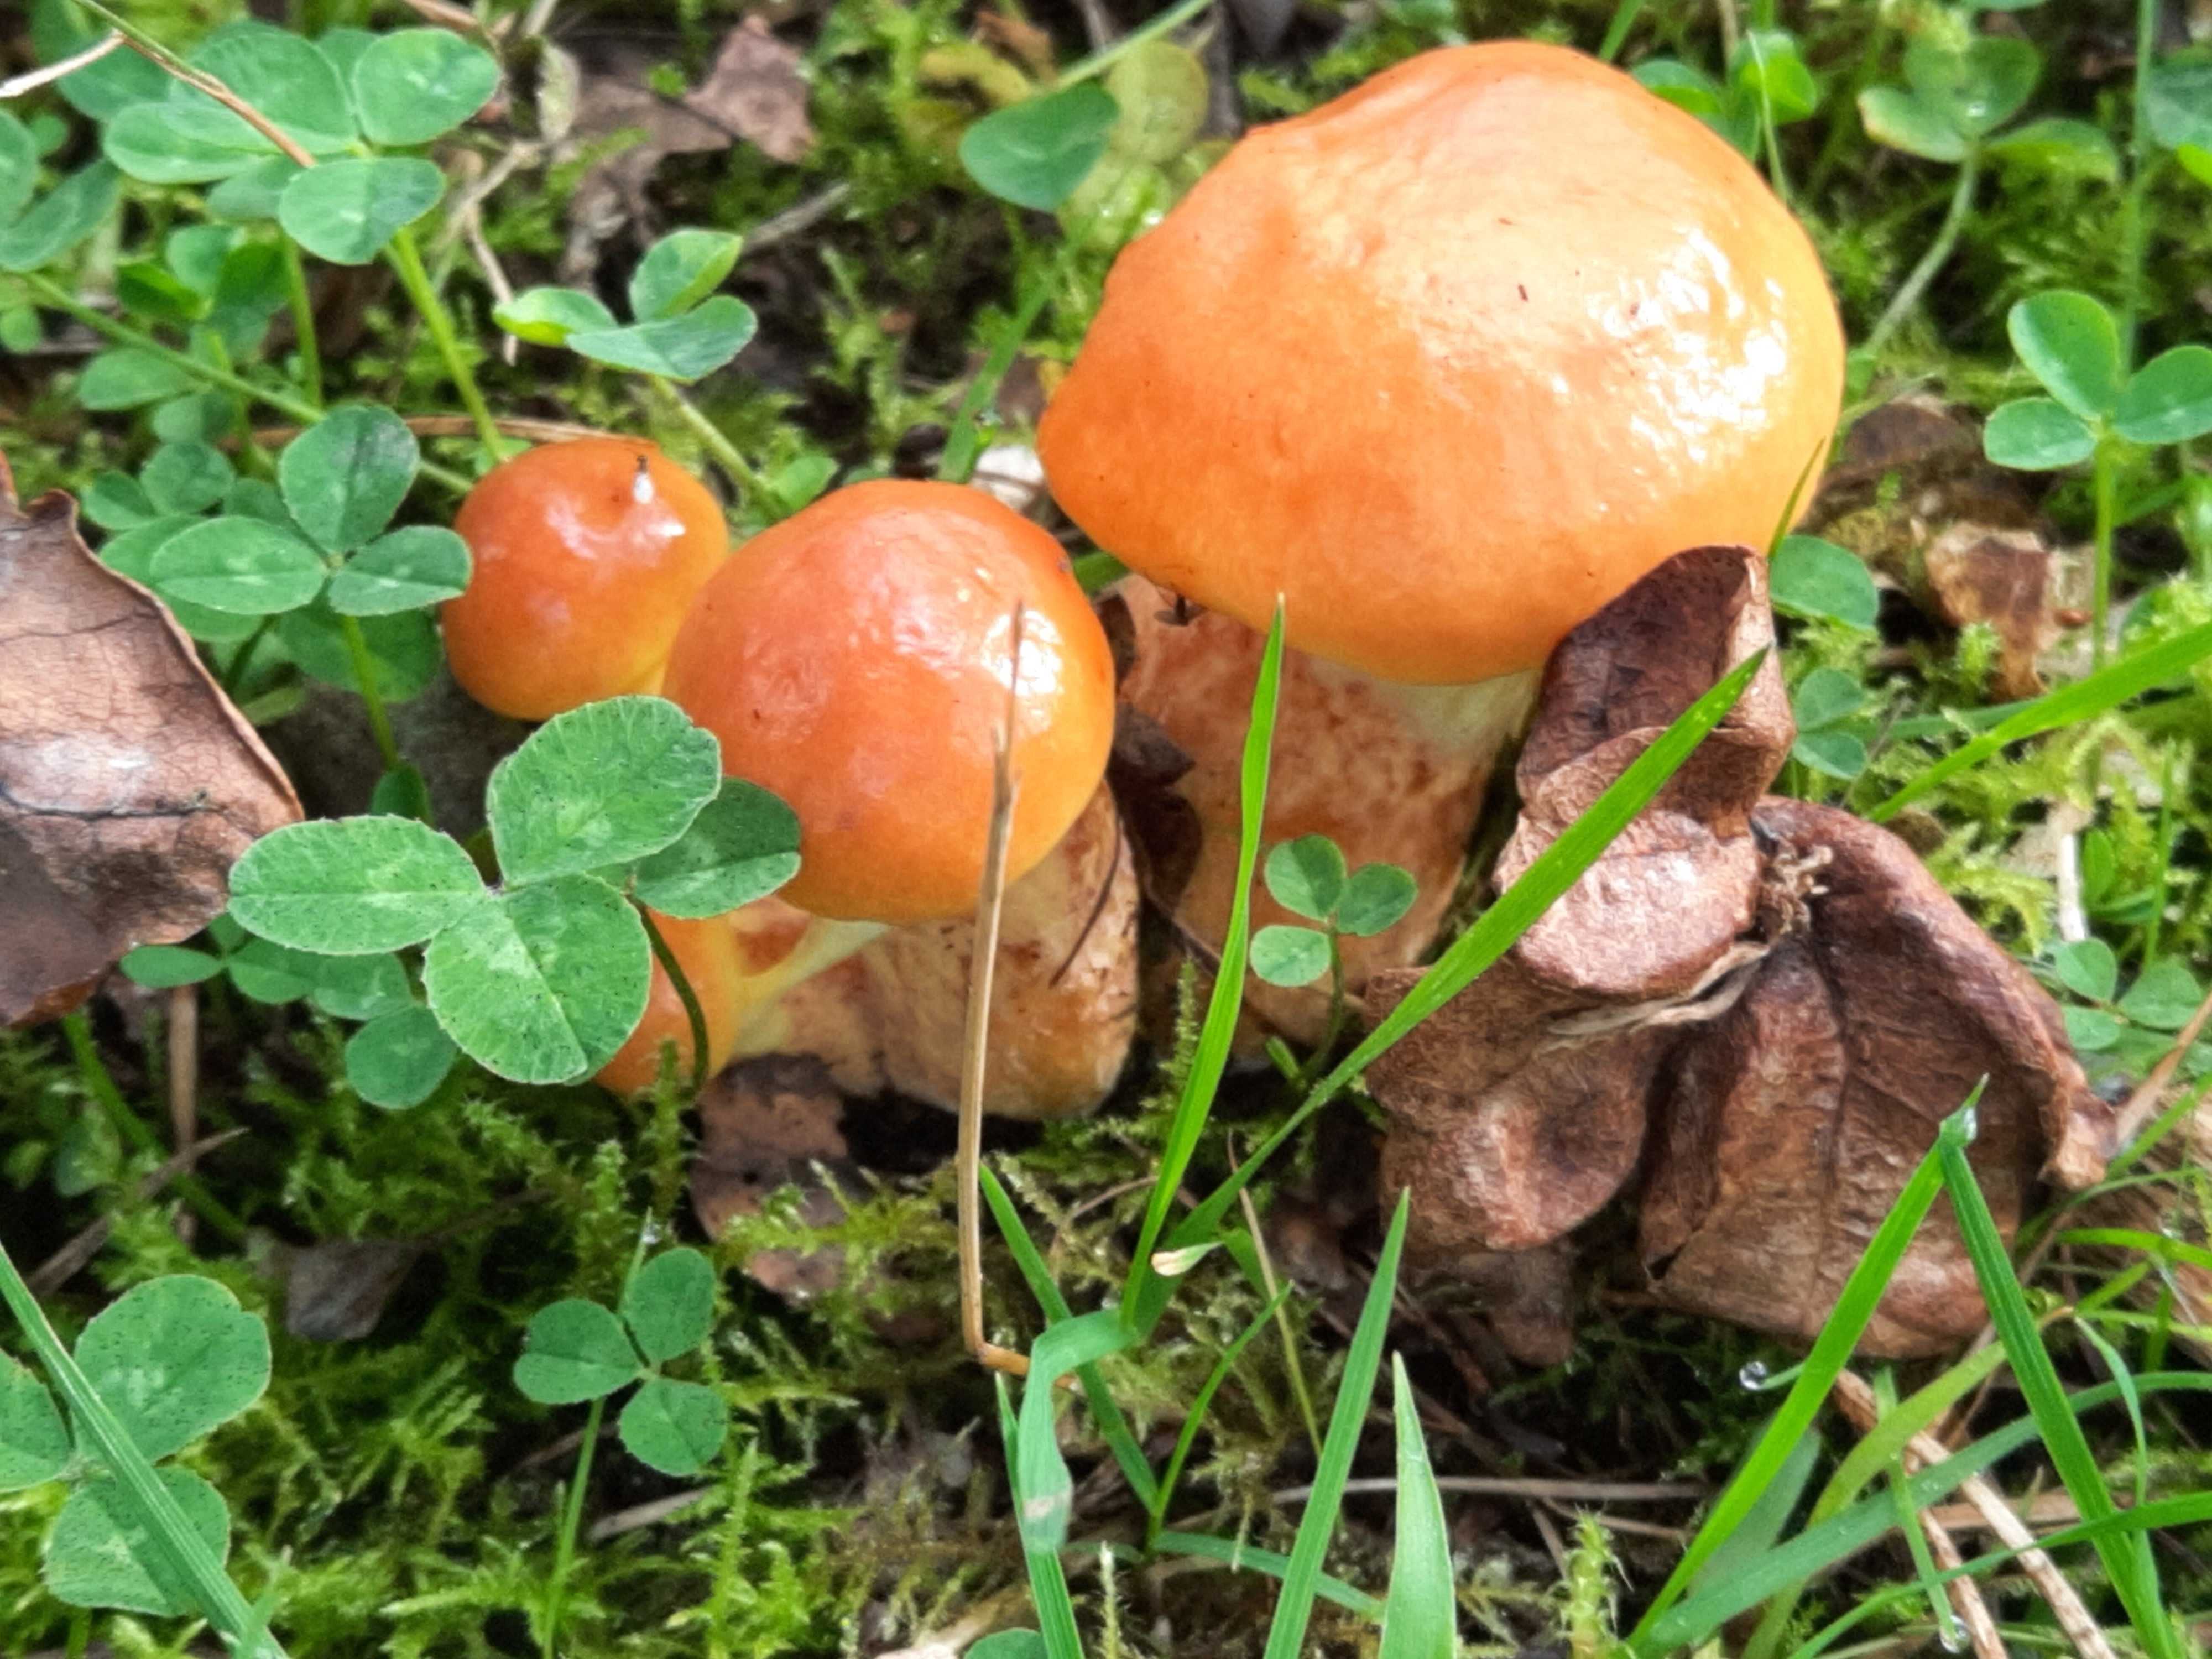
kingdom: Fungi
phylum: Basidiomycota
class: Agaricomycetes
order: Boletales
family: Suillaceae
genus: Suillus
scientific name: Suillus grevillei
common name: lærke-slimrørhat
